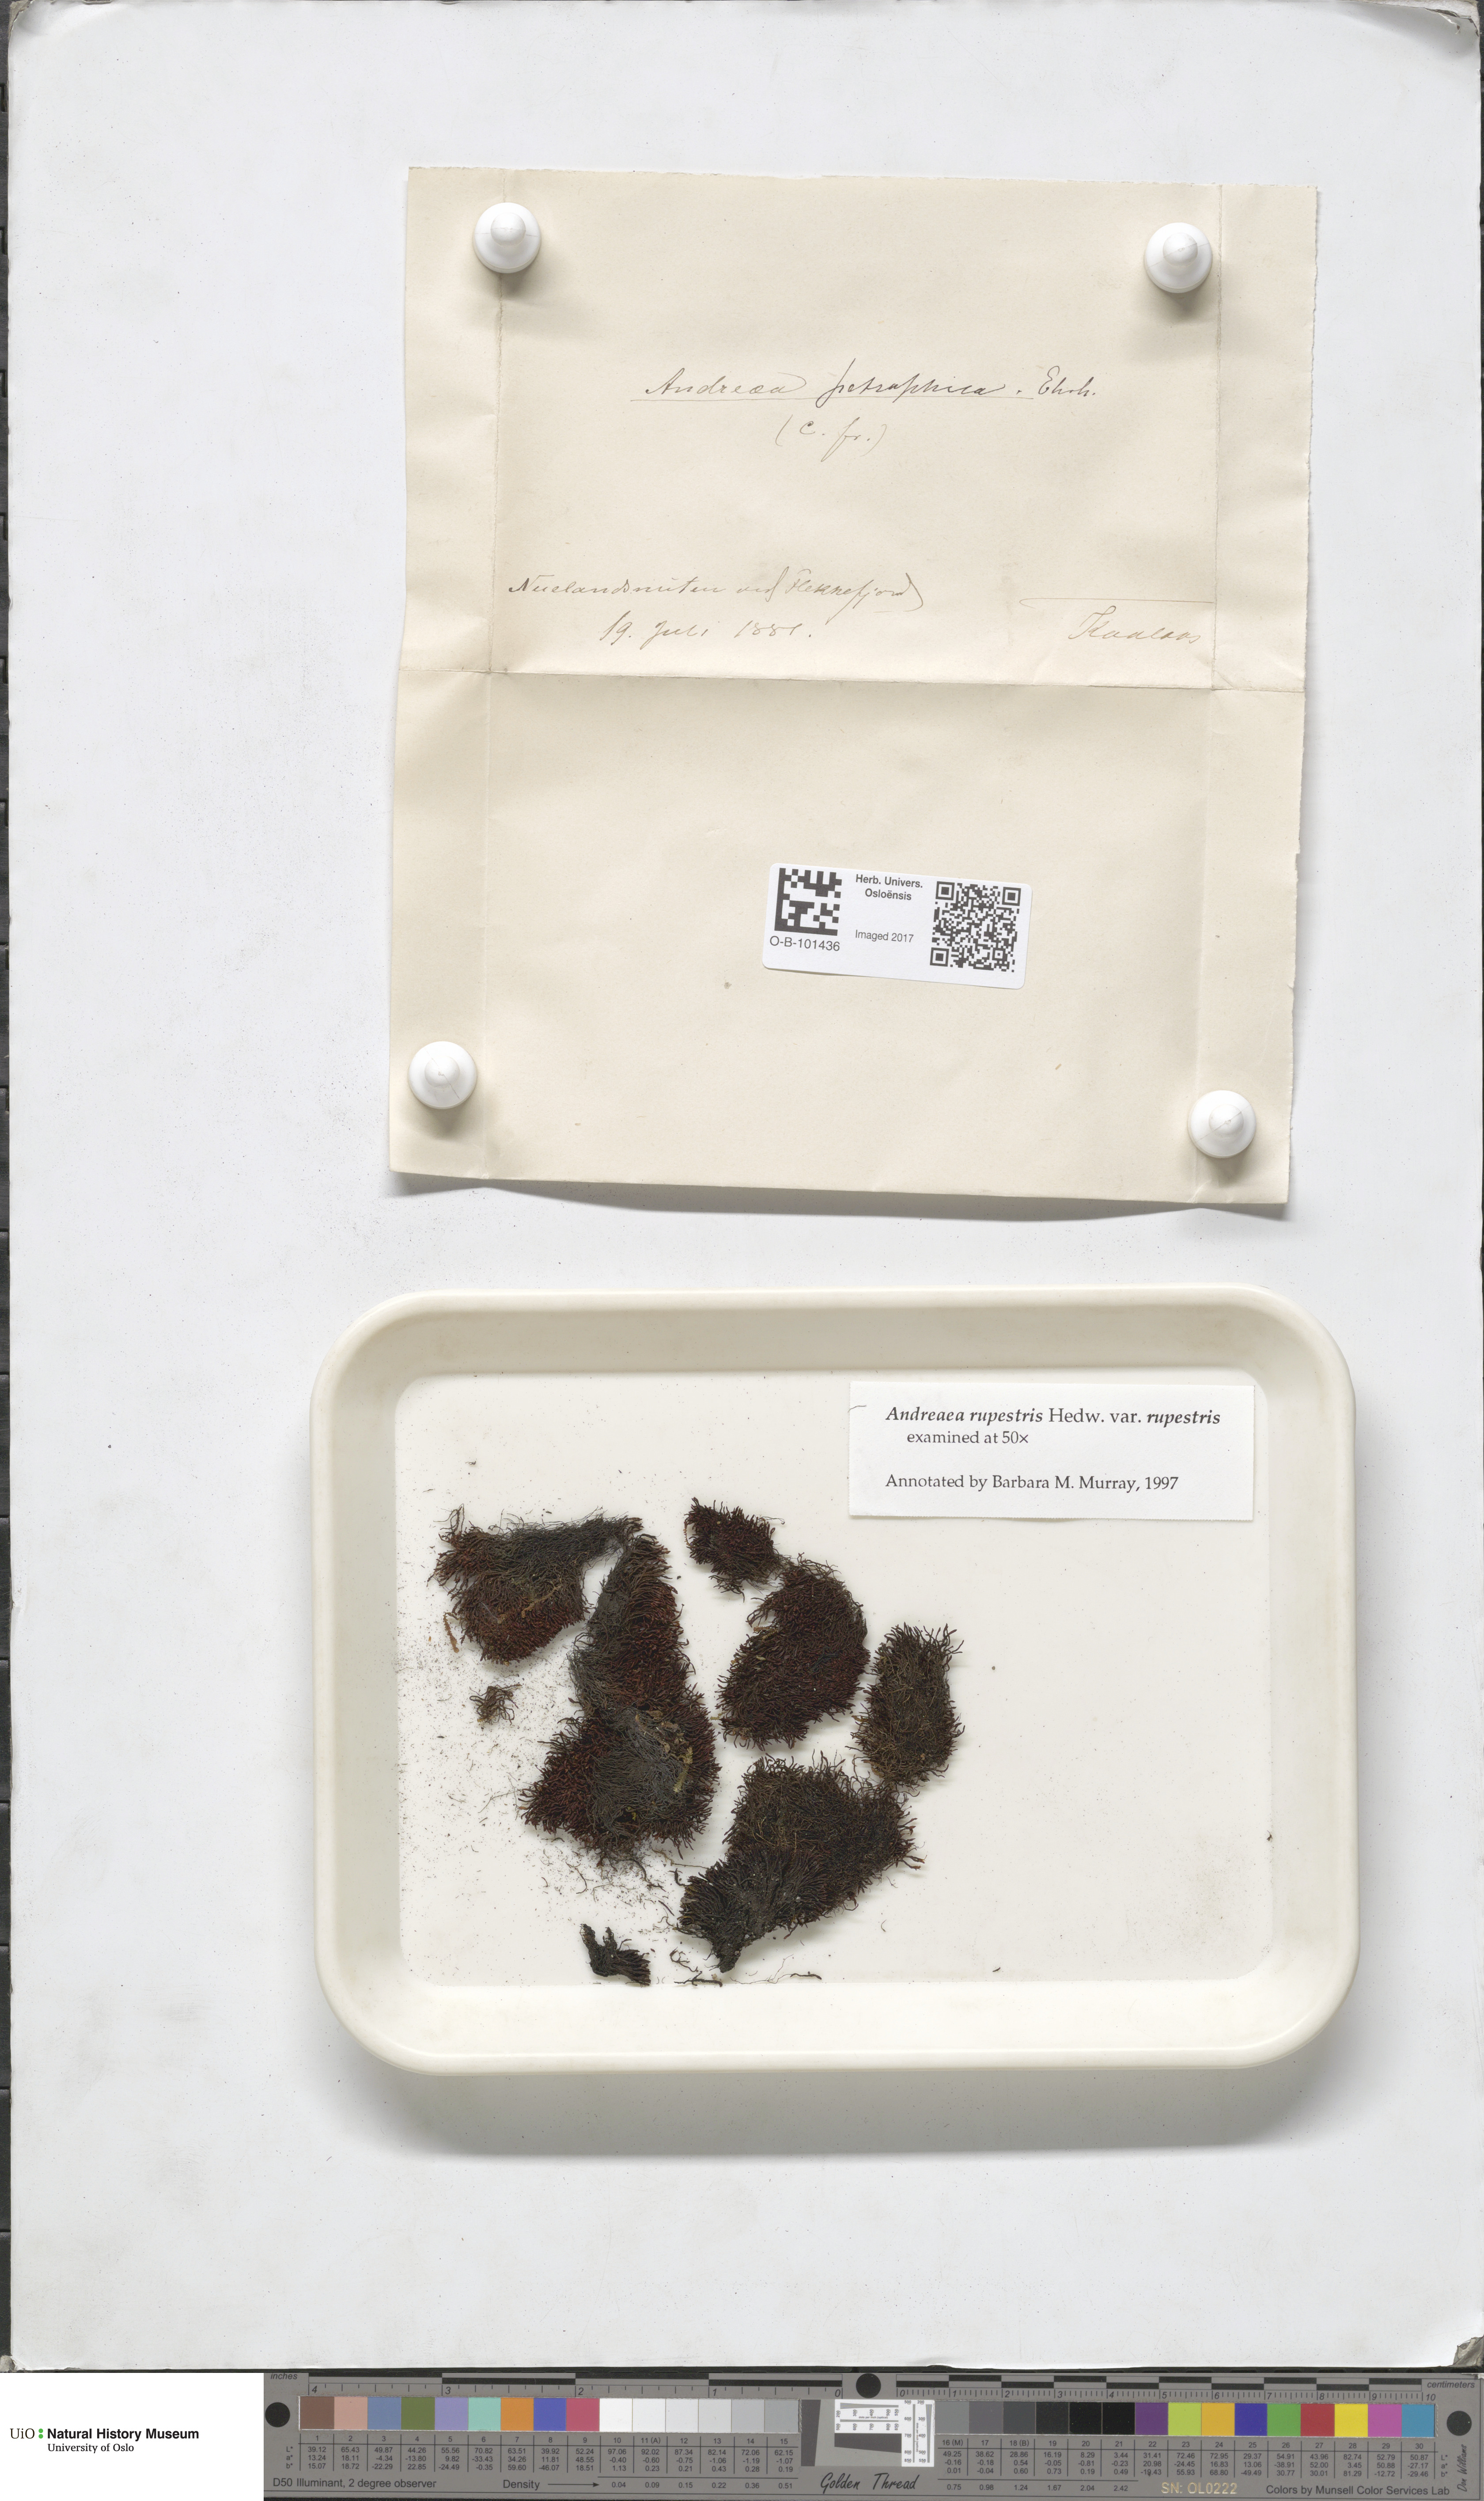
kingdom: Plantae
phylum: Bryophyta
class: Andreaeopsida
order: Andreaeales
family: Andreaeaceae
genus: Andreaea
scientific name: Andreaea rupestris
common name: Black rock moss
